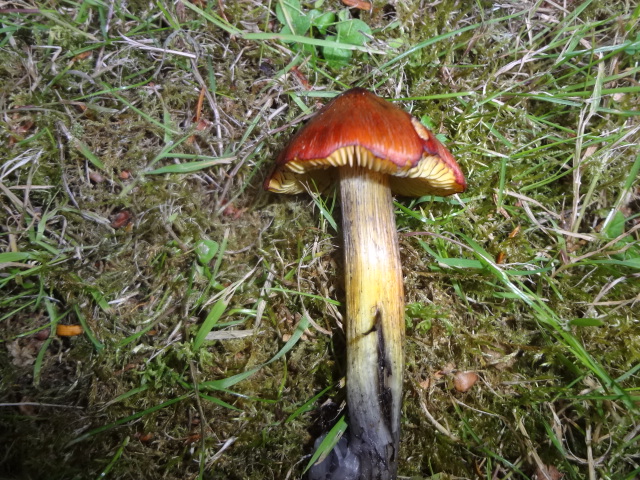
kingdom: Fungi
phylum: Basidiomycota
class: Agaricomycetes
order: Agaricales
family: Hygrophoraceae
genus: Hygrocybe
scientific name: Hygrocybe conica
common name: kegle-vokshat
